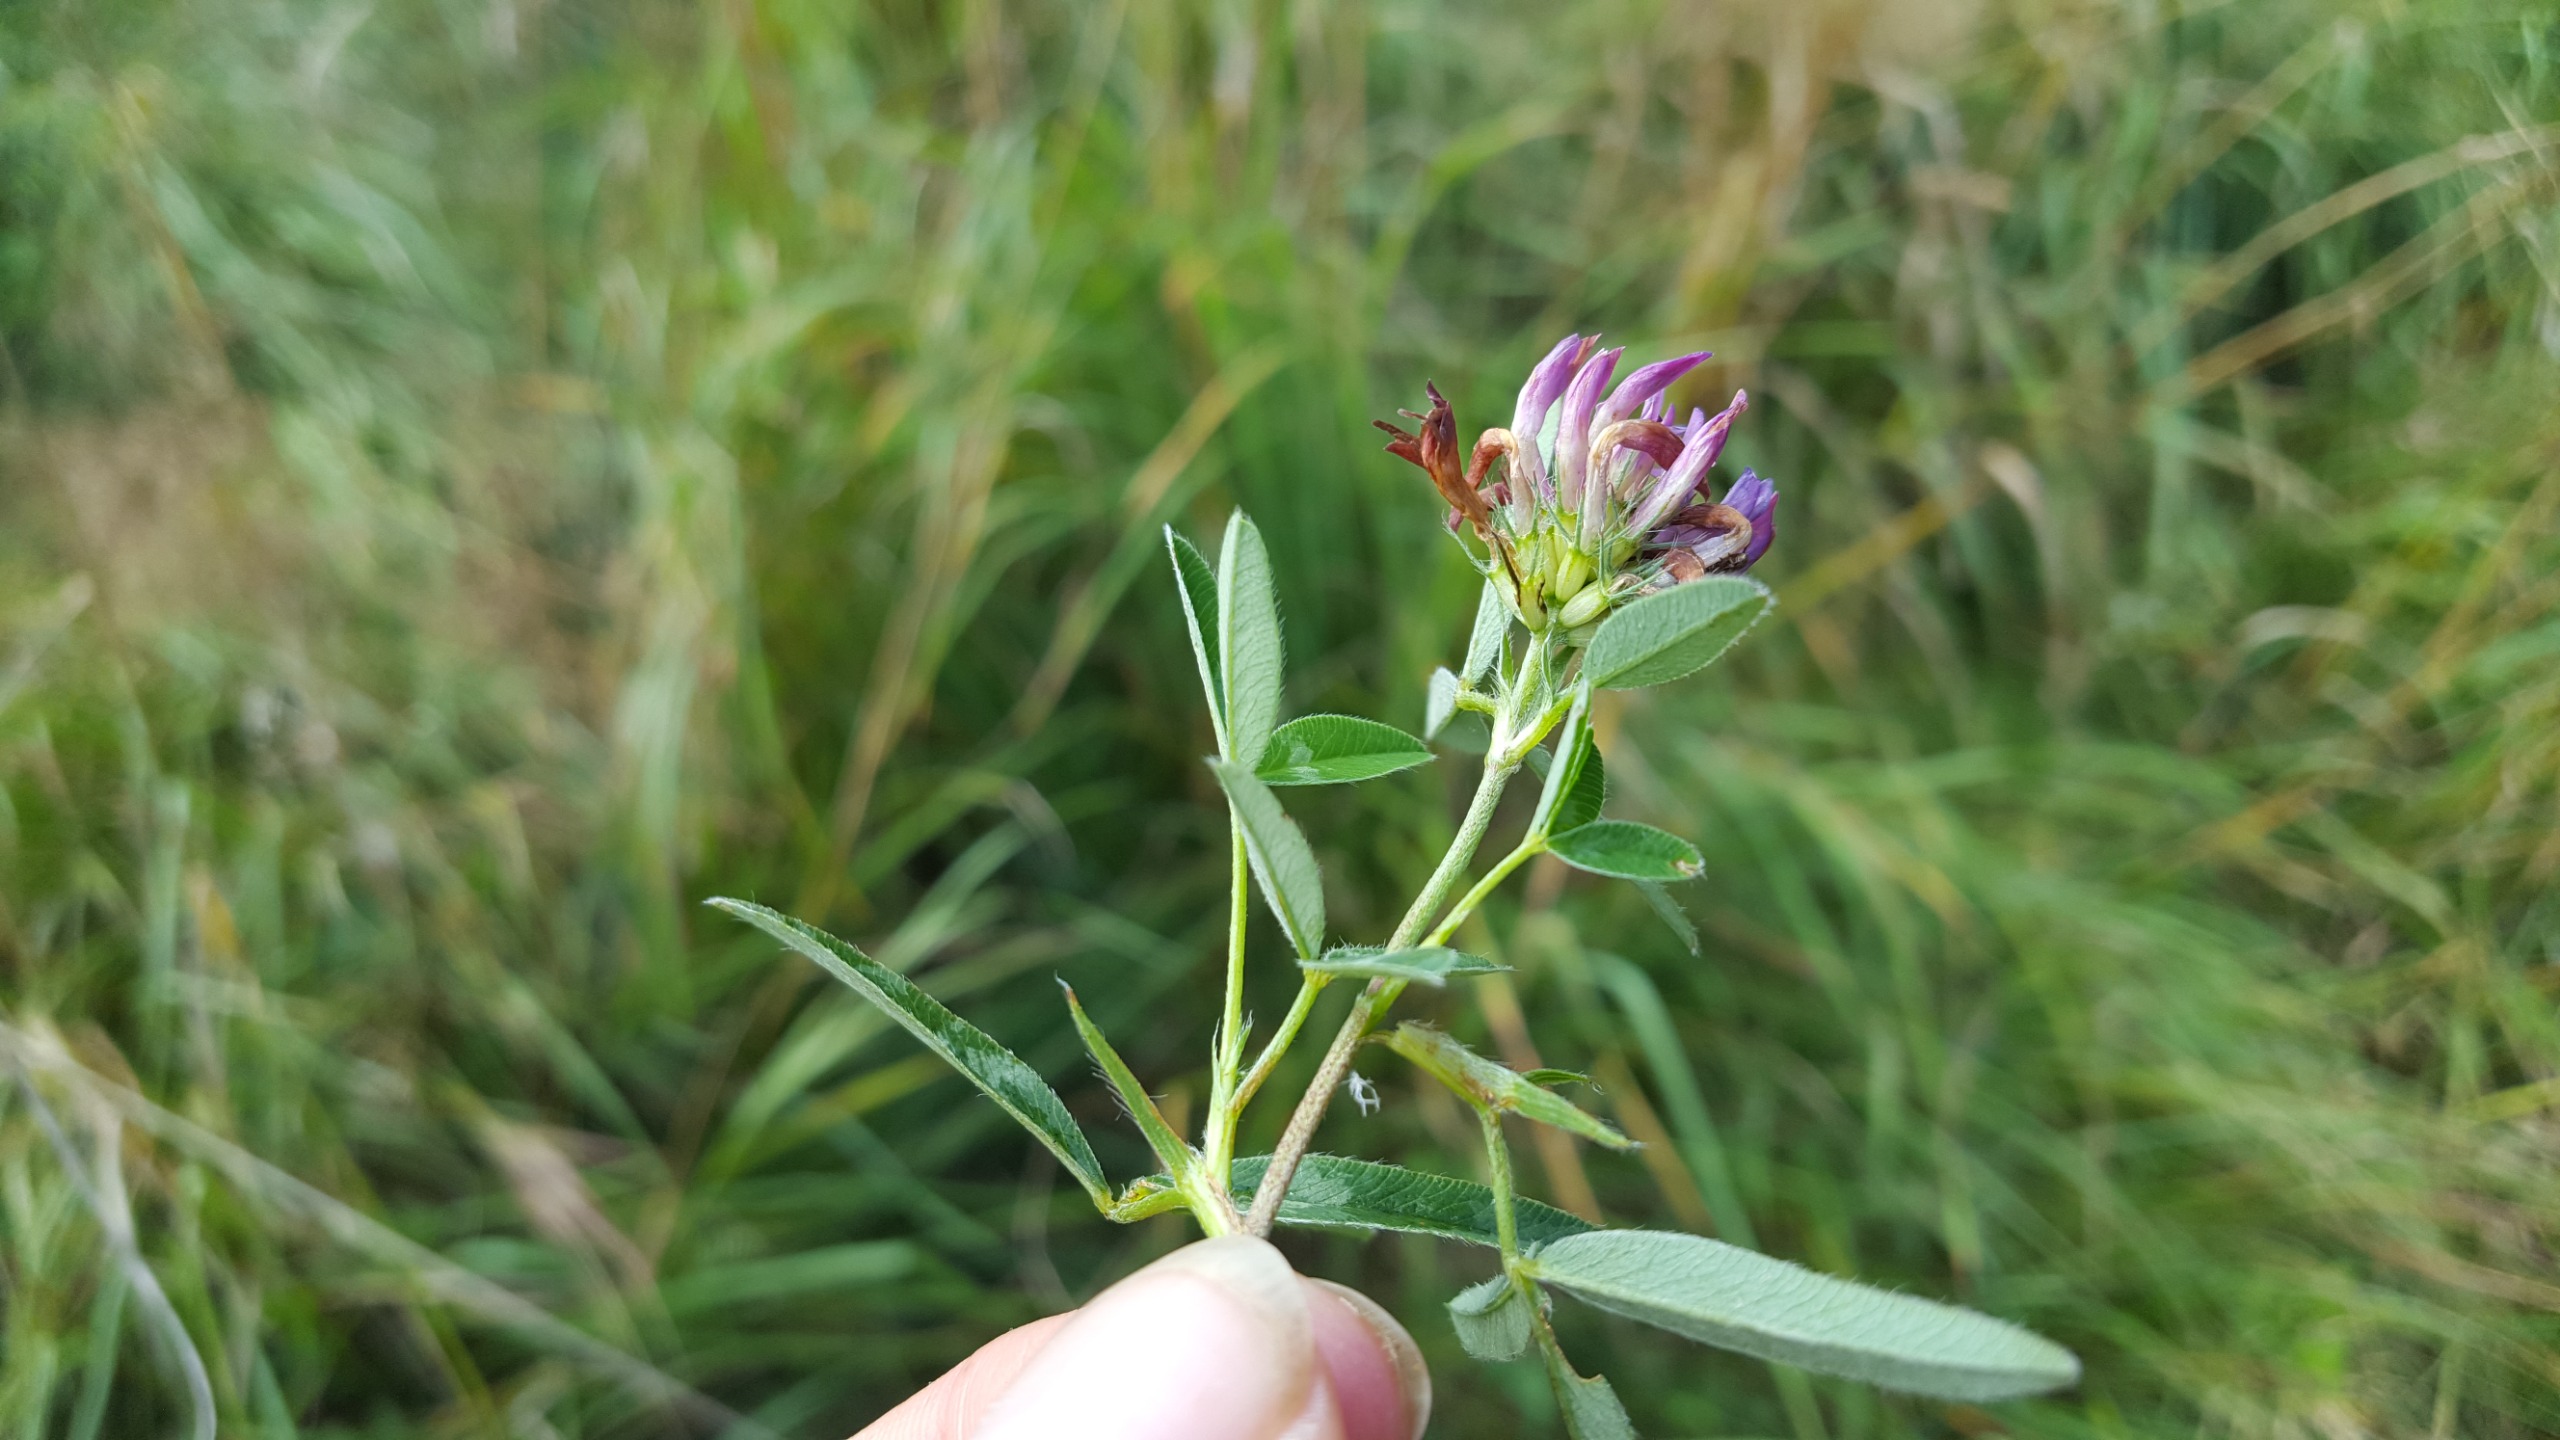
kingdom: Plantae
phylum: Tracheophyta
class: Magnoliopsida
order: Fabales
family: Fabaceae
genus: Trifolium
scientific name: Trifolium medium
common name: Bugtet kløver
